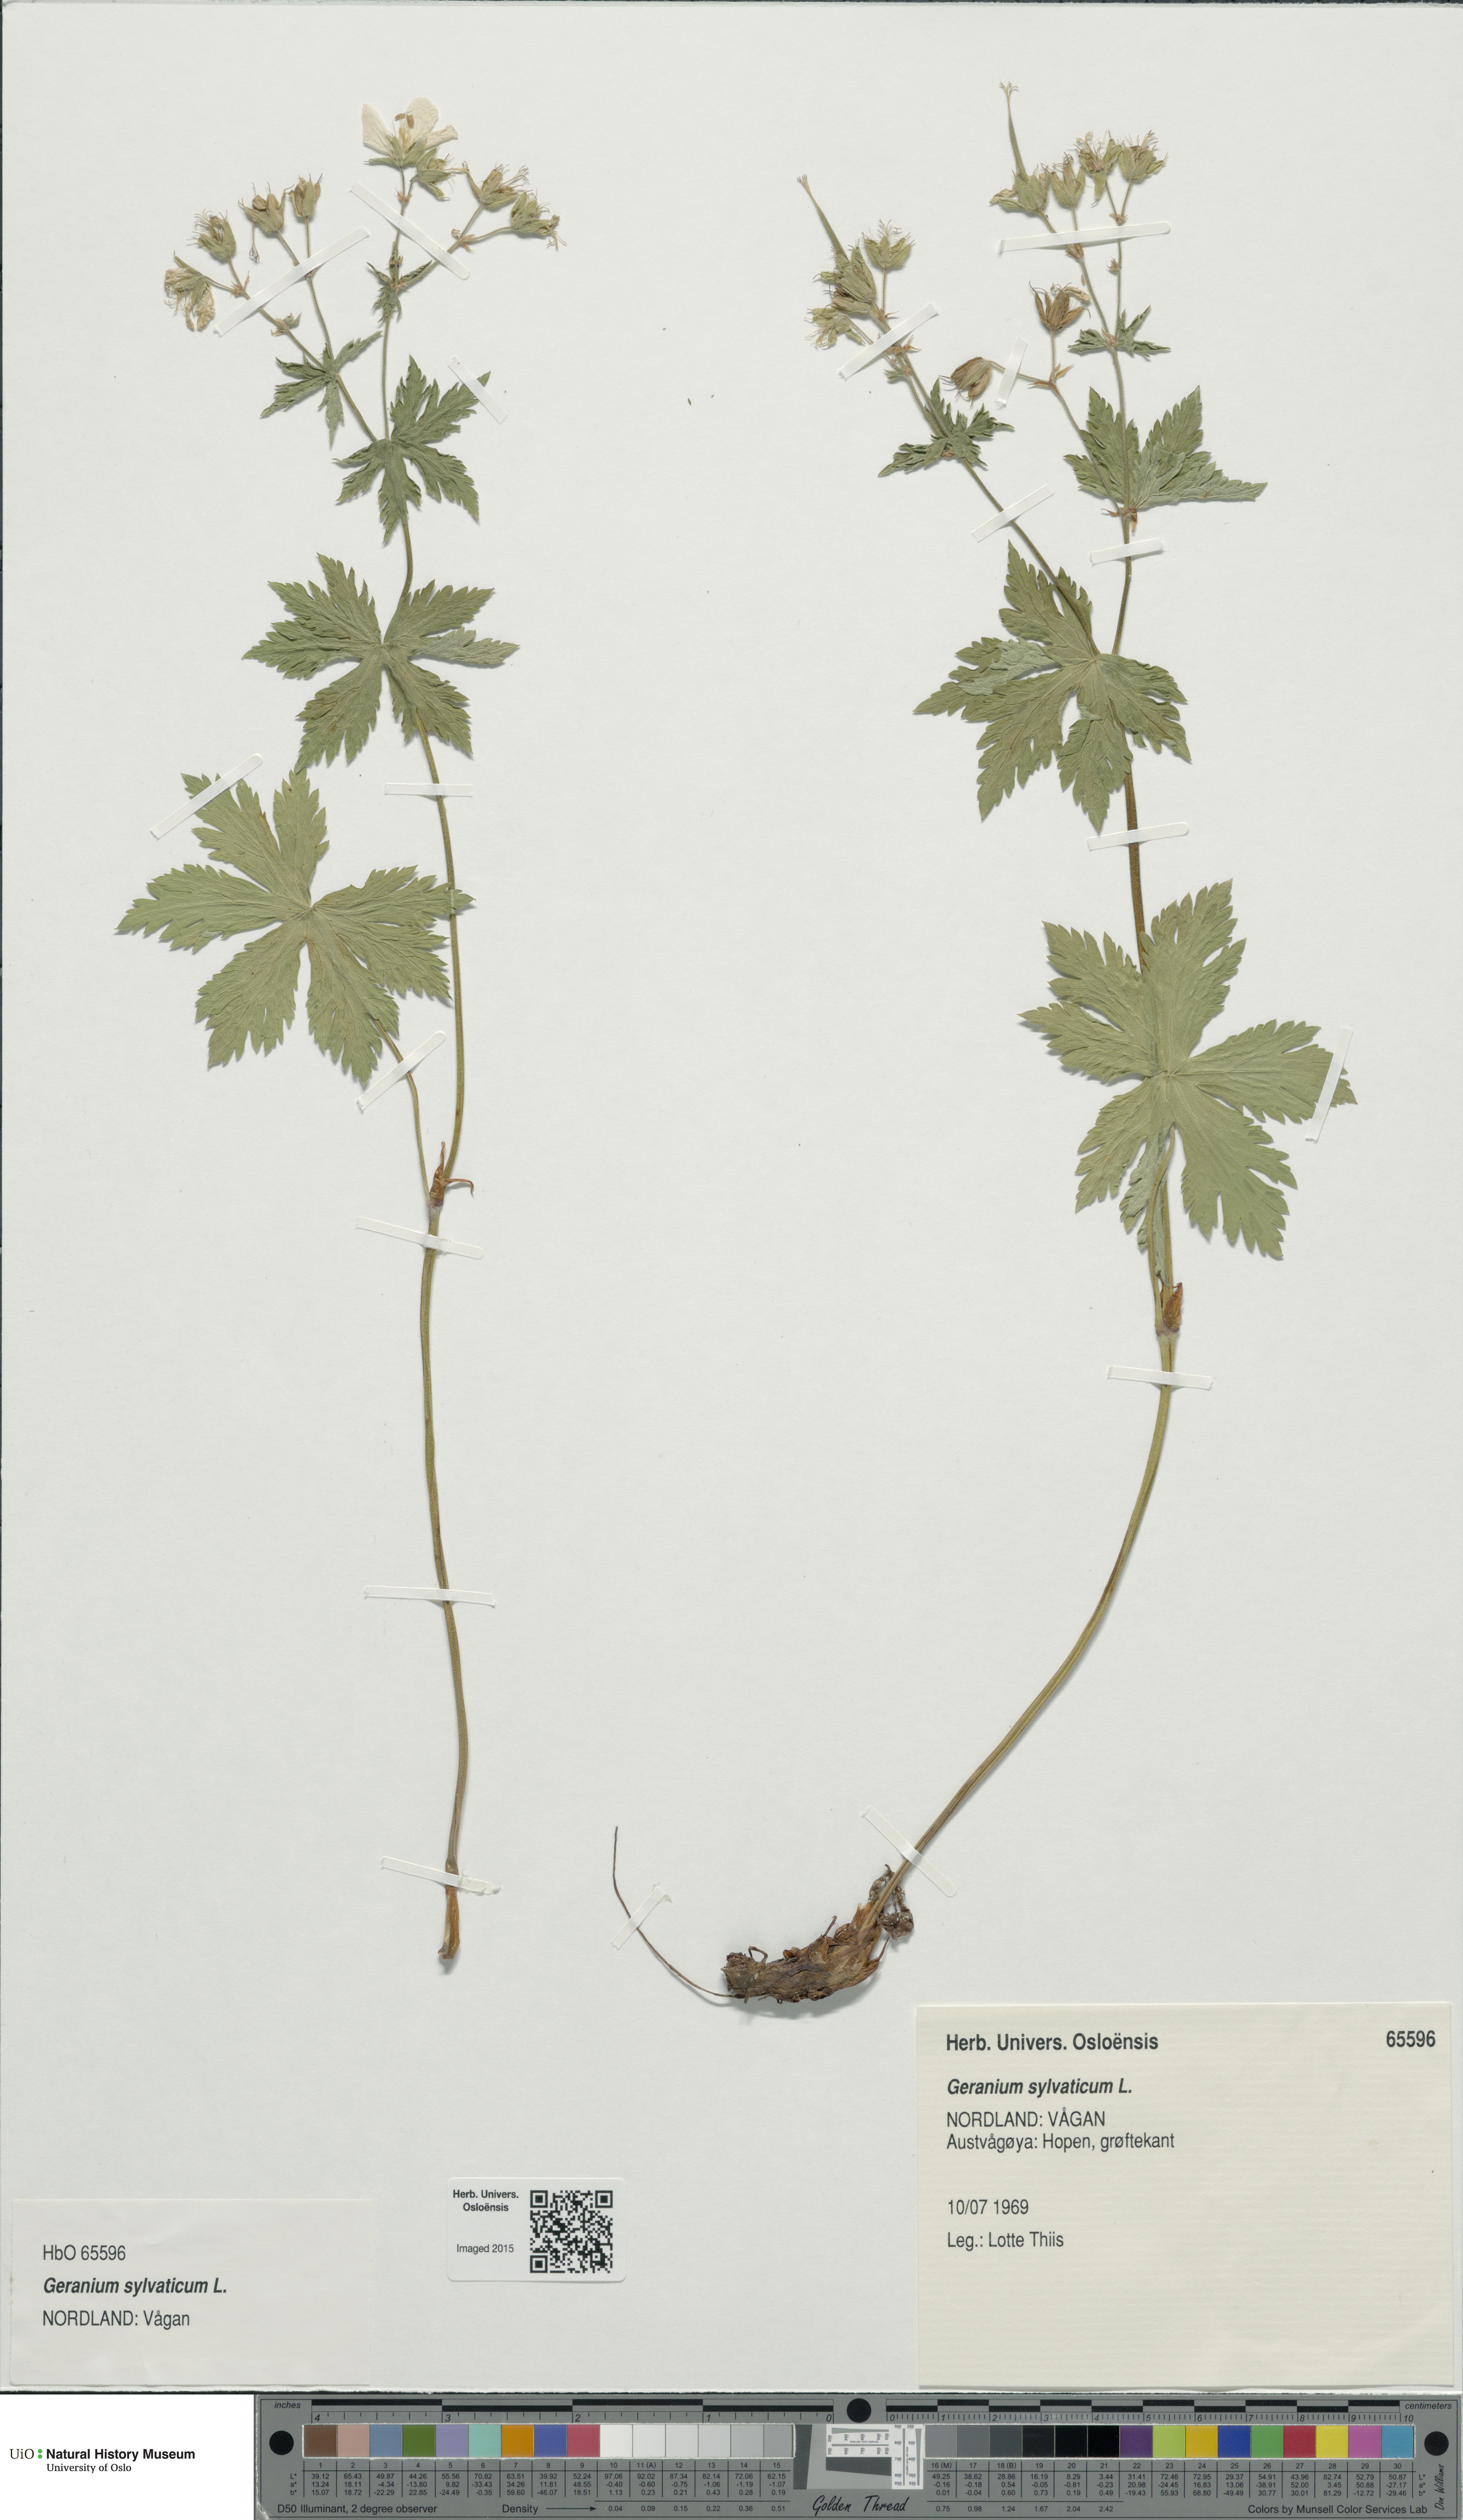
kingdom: Plantae
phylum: Tracheophyta
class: Magnoliopsida
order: Geraniales
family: Geraniaceae
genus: Geranium
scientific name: Geranium sylvaticum
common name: Wood crane's-bill
